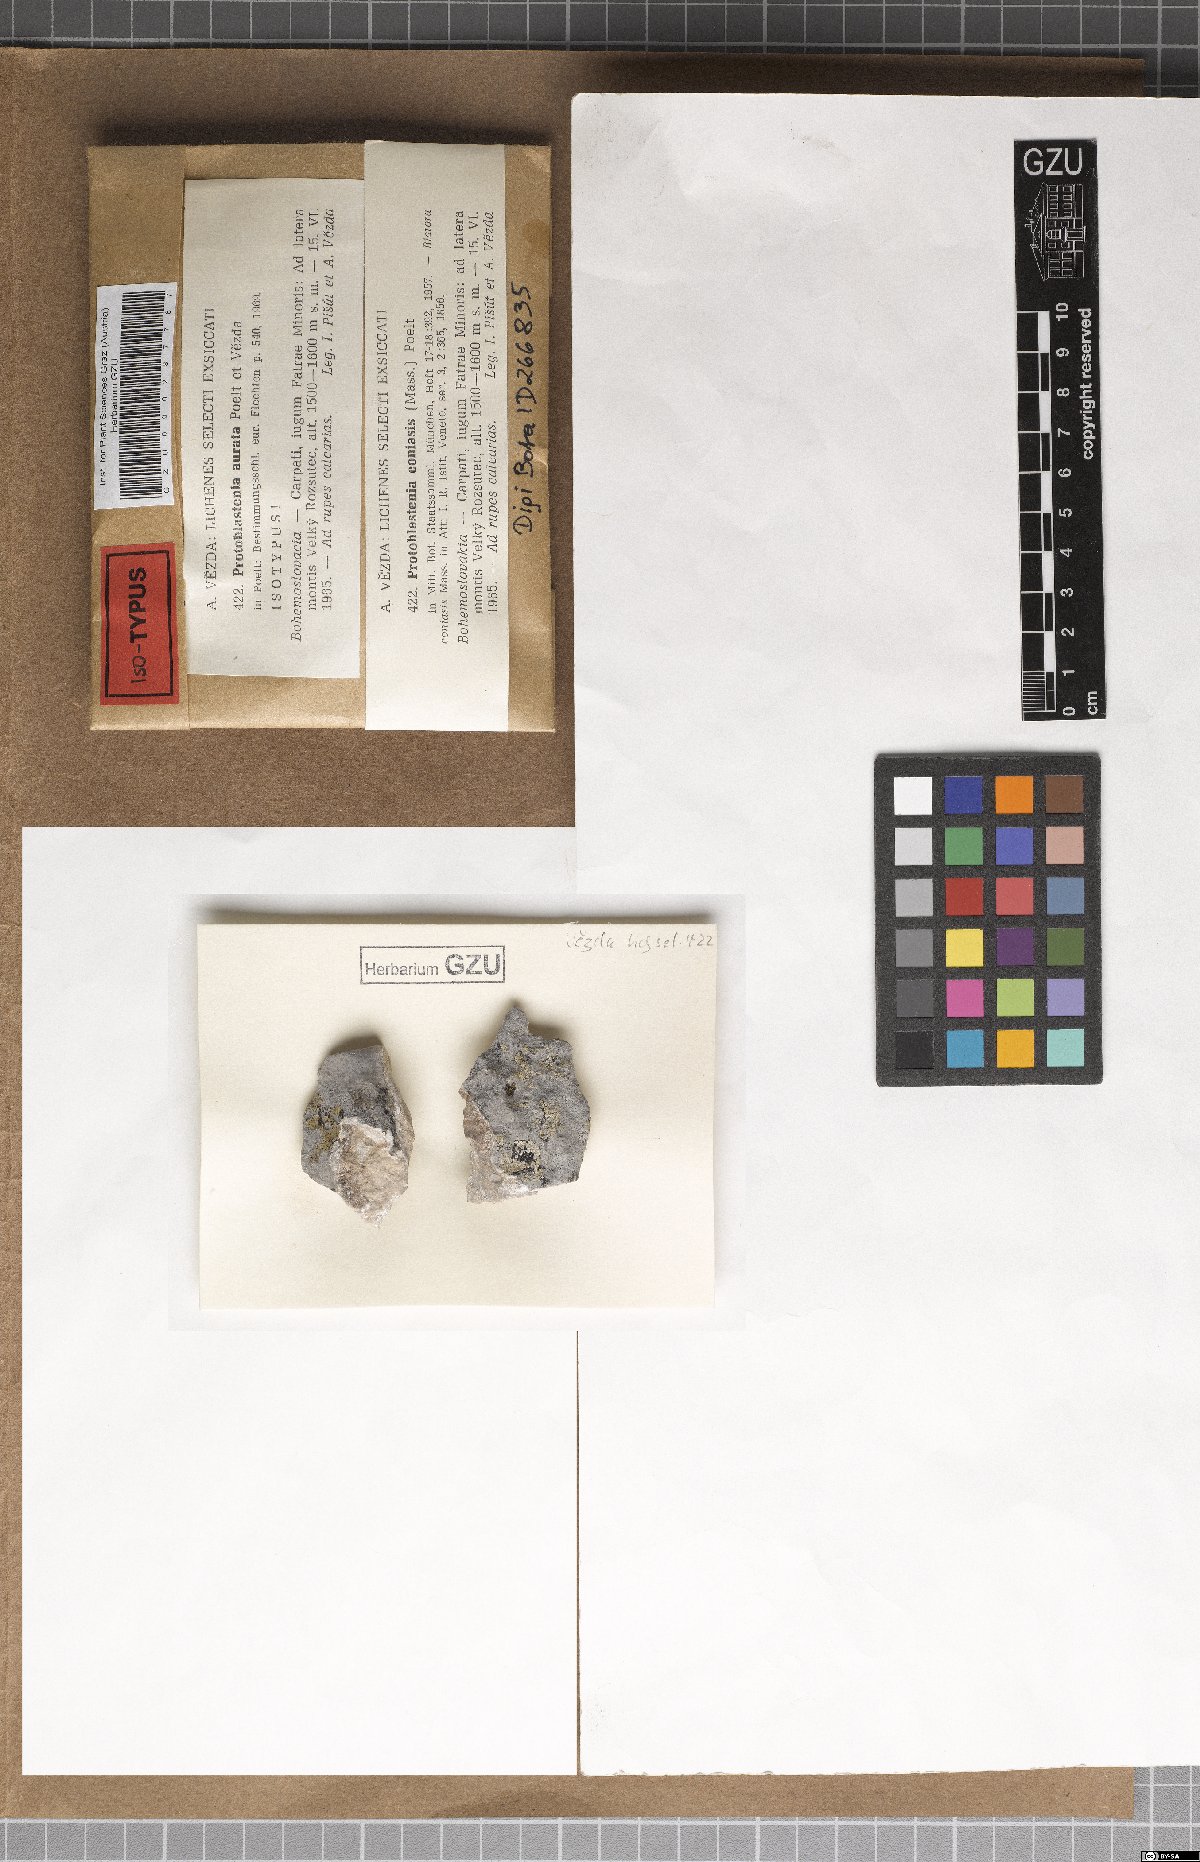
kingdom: Fungi
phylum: Ascomycota
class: Lecanoromycetes
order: Lecanorales
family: Psoraceae
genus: Protoblastenia
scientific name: Protoblastenia aurata
